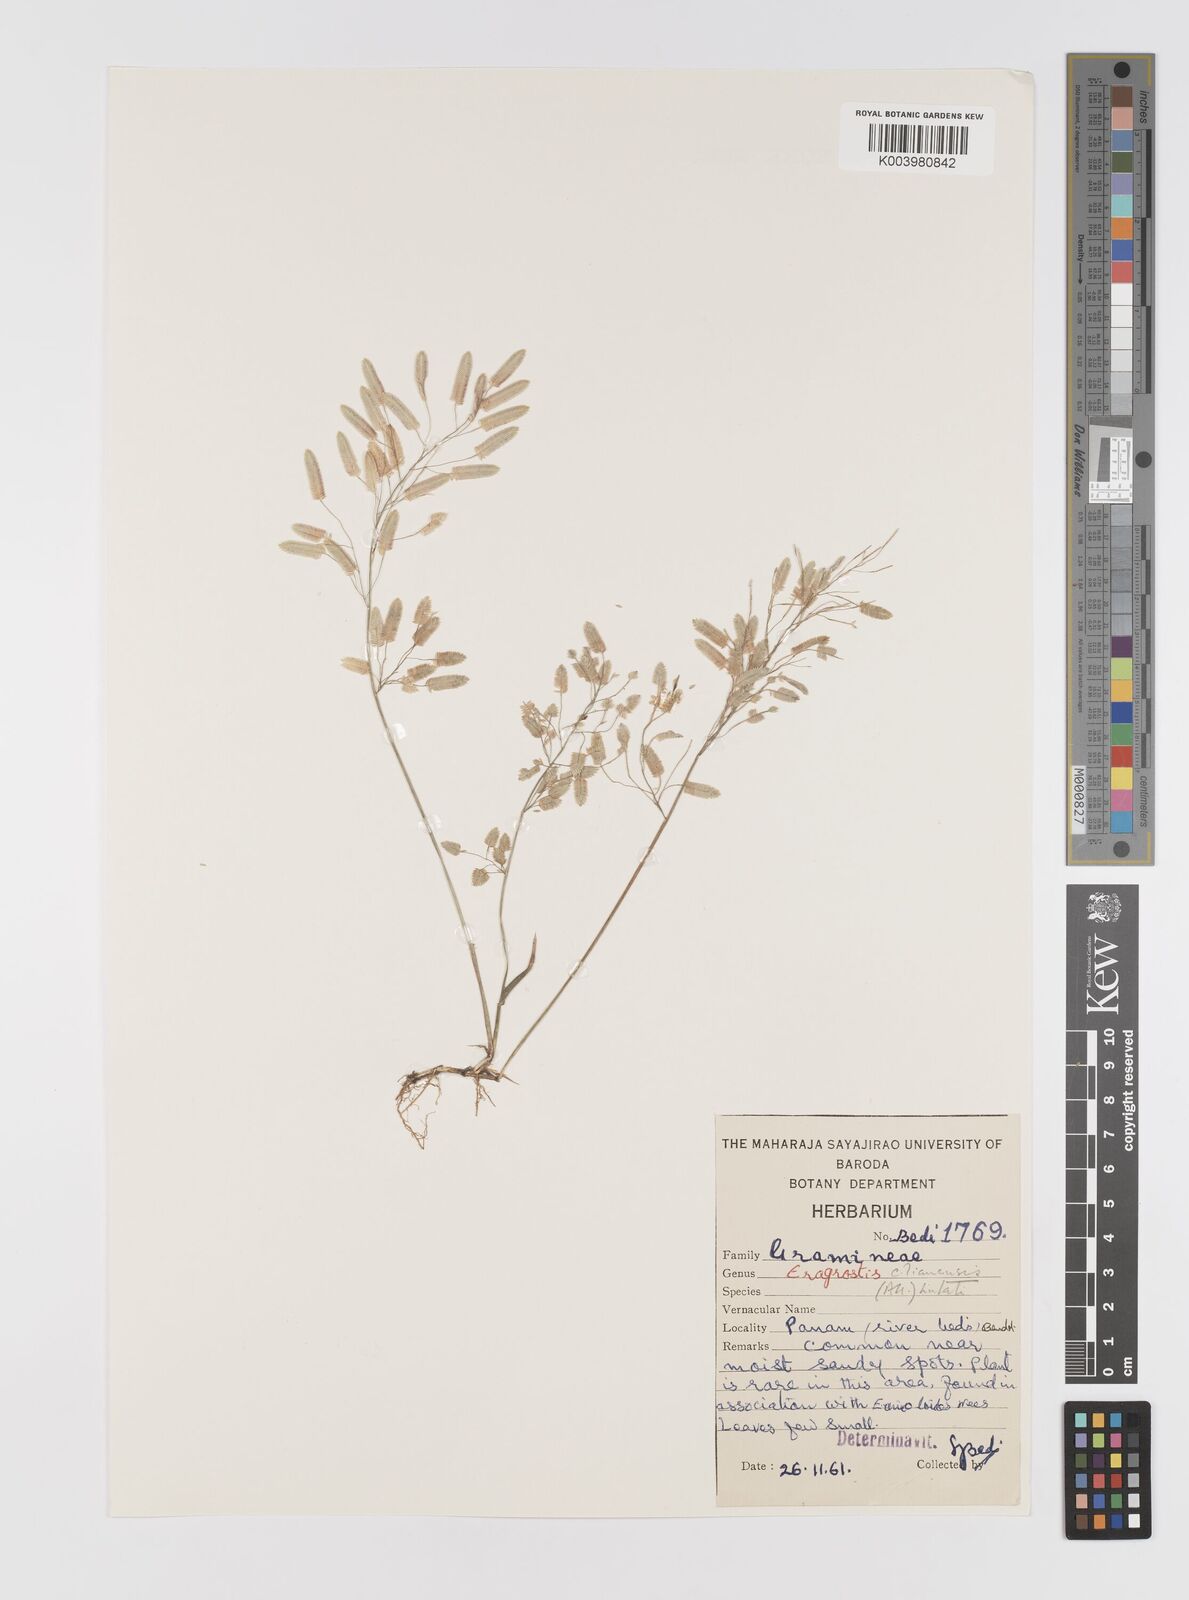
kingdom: Plantae
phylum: Tracheophyta
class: Liliopsida
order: Poales
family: Poaceae
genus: Eragrostis
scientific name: Eragrostis cilianensis
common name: Stinkgrass
